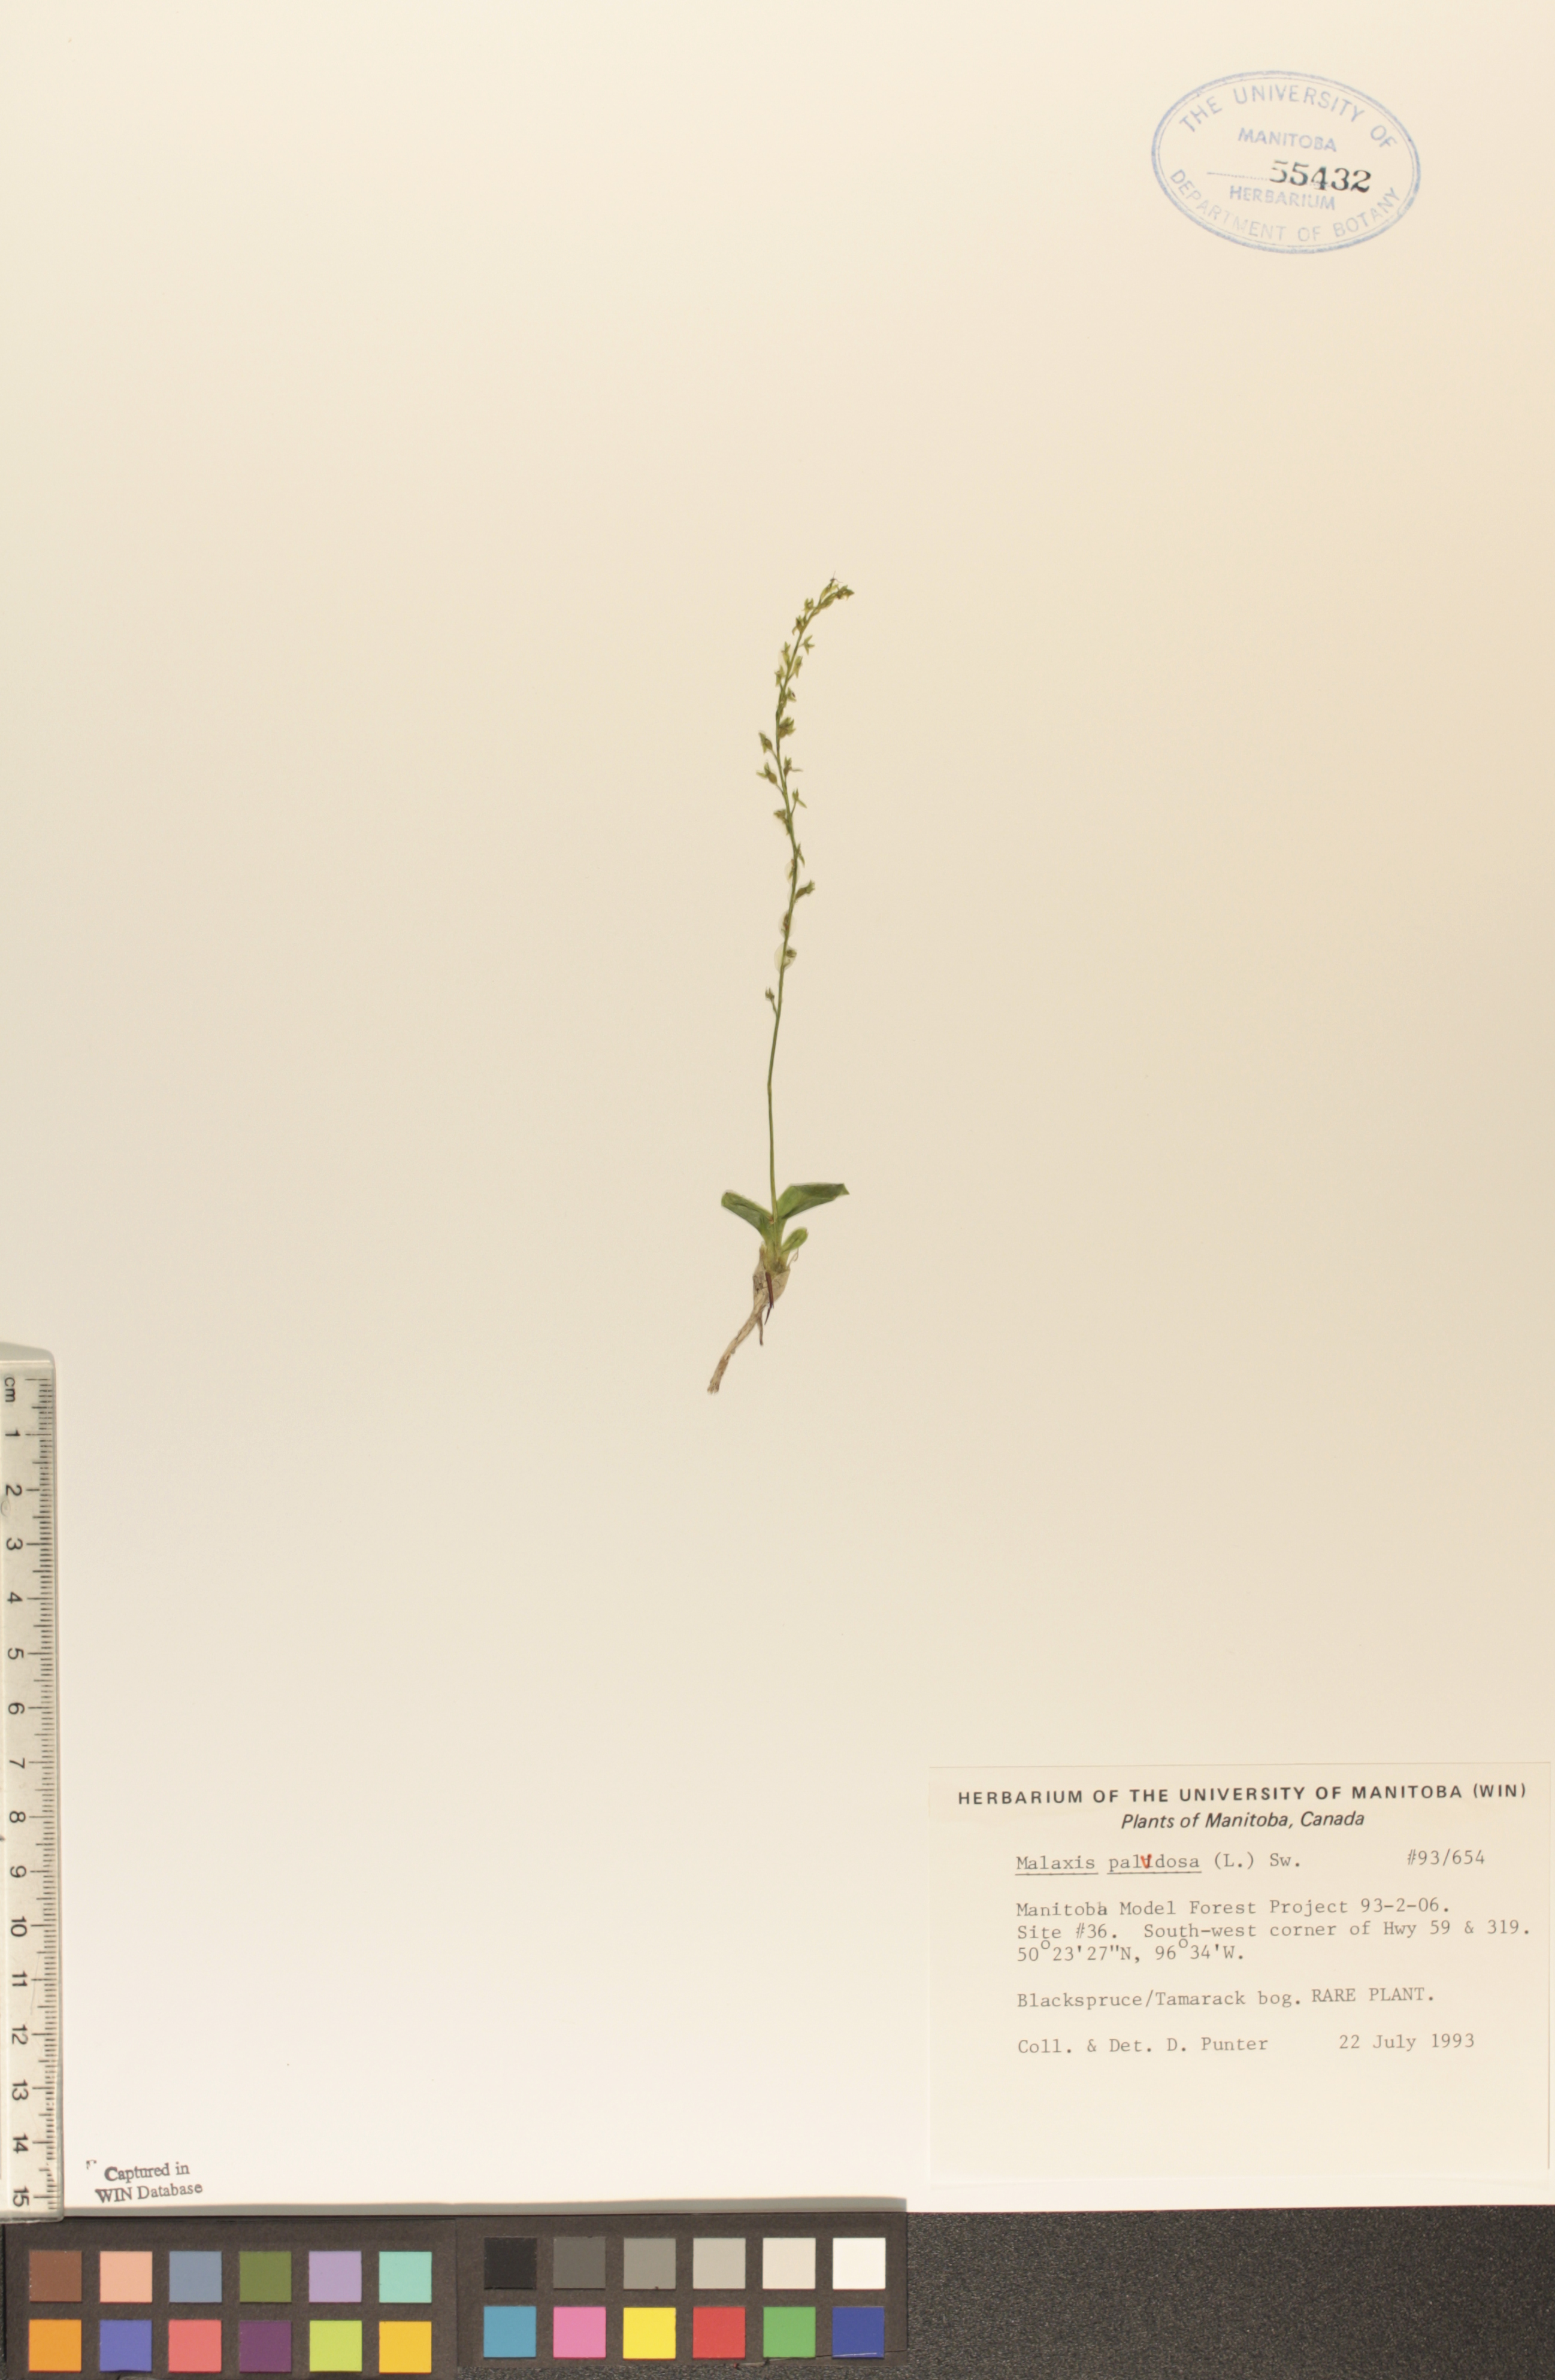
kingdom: Plantae
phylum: Tracheophyta
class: Liliopsida
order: Asparagales
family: Orchidaceae
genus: Hammarbya
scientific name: Hammarbya paludosa
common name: Bog orchid
